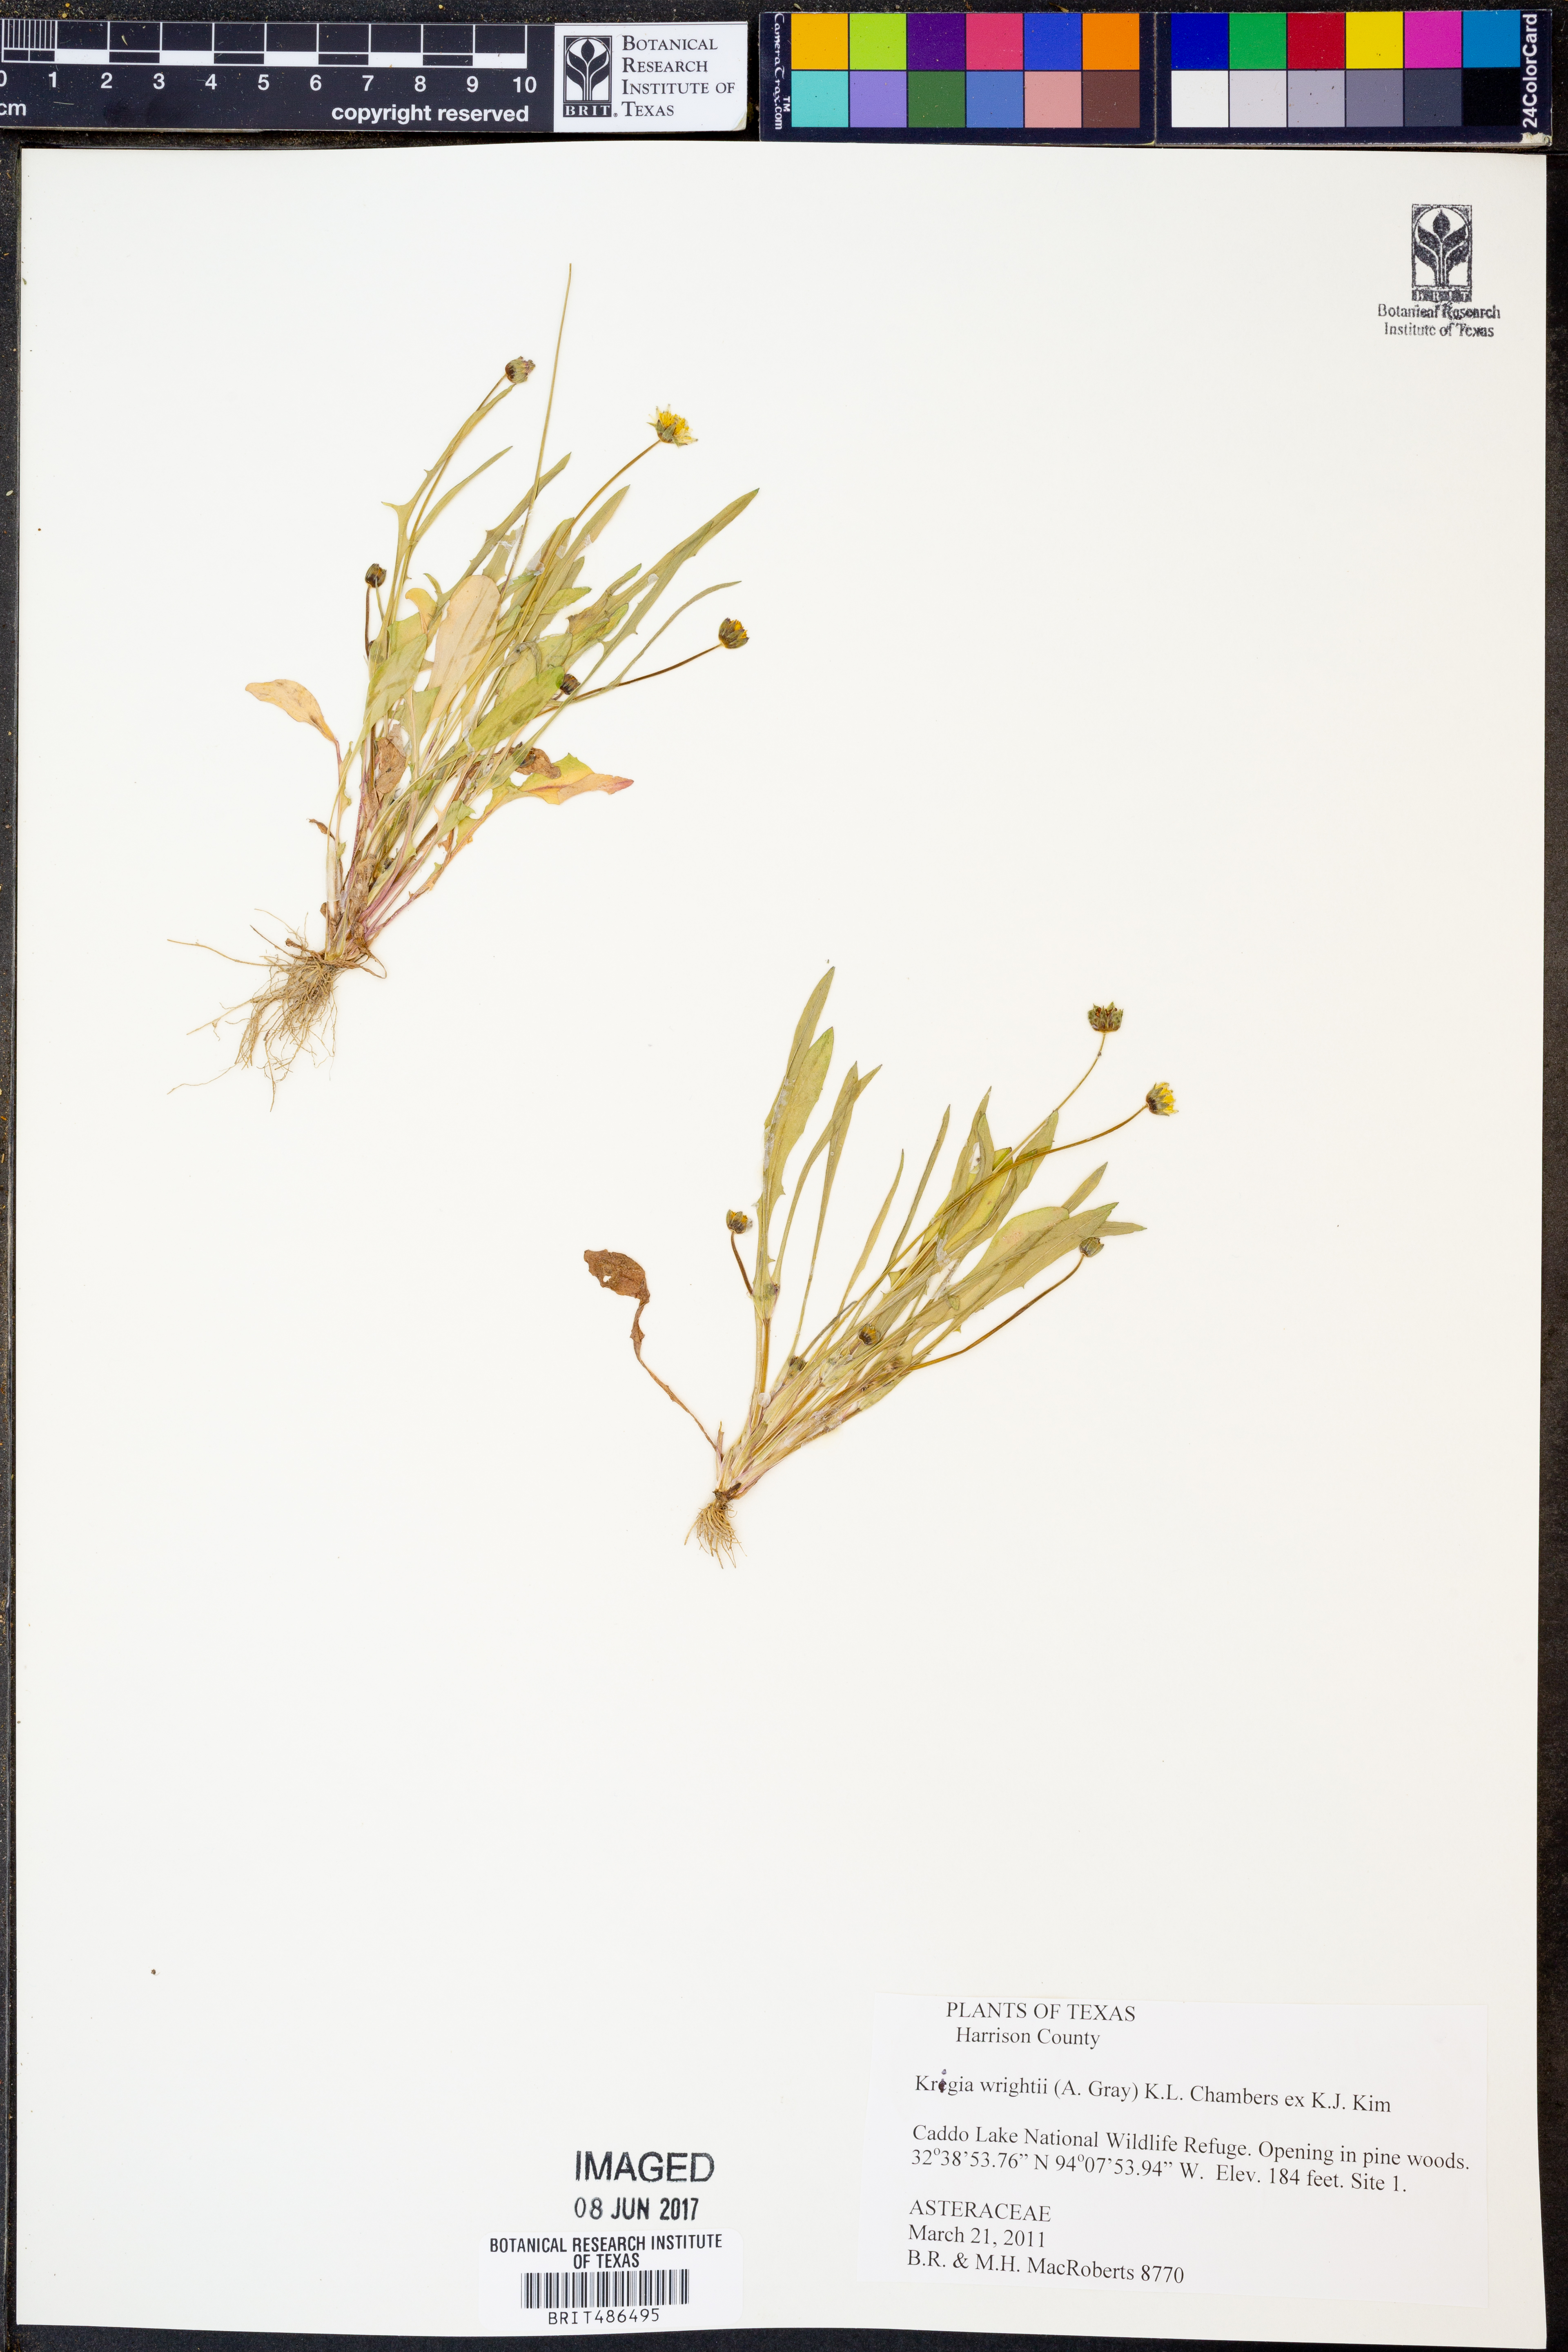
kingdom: Plantae
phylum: Tracheophyta
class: Magnoliopsida
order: Asterales
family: Asteraceae
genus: Krigia
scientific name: Krigia wrightii
